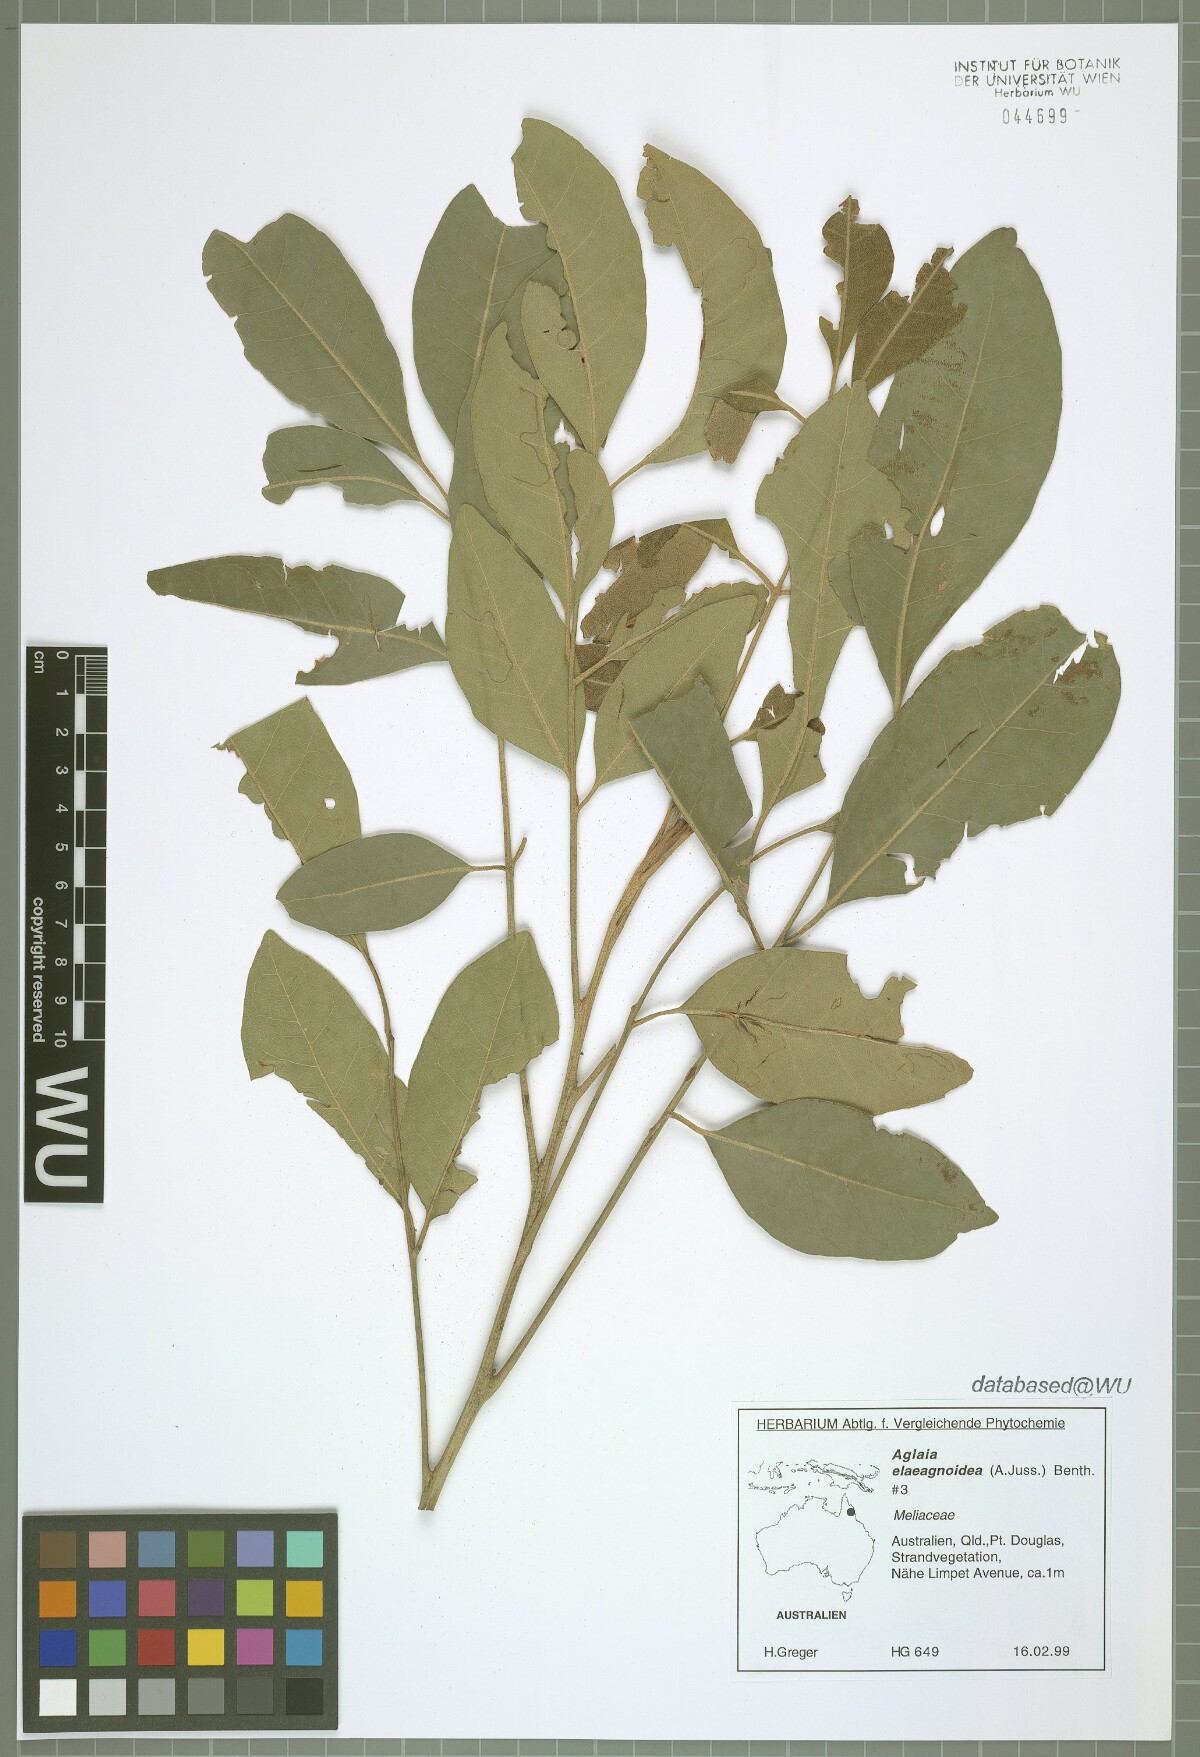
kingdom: Plantae
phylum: Tracheophyta
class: Magnoliopsida
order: Sapindales
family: Meliaceae
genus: Aglaia
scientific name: Aglaia elaeagnoidea
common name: Droopyleaf
